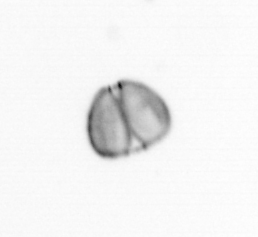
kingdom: Chromista
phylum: Ochrophyta
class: Bacillariophyceae
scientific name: Bacillariophyceae
